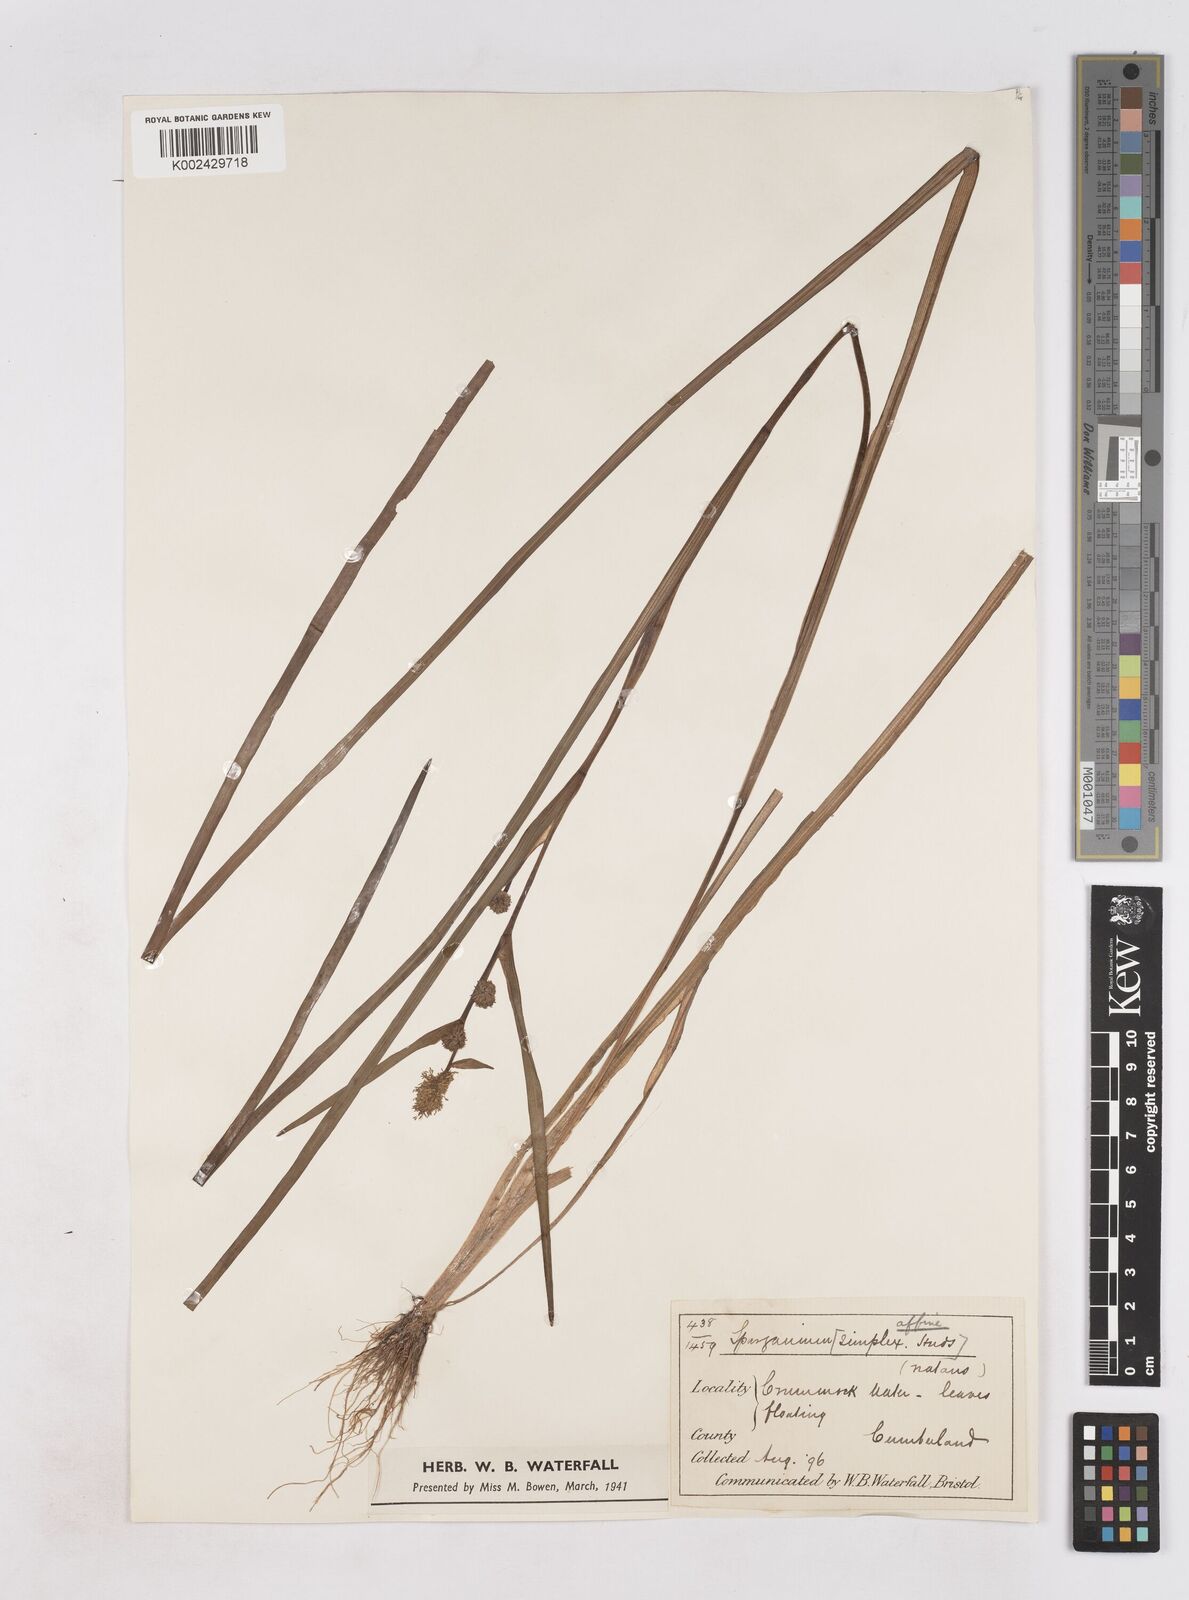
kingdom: Plantae
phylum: Tracheophyta
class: Liliopsida
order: Poales
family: Typhaceae
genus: Sparganium
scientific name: Sparganium angustifolium
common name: Floating bur-reed
